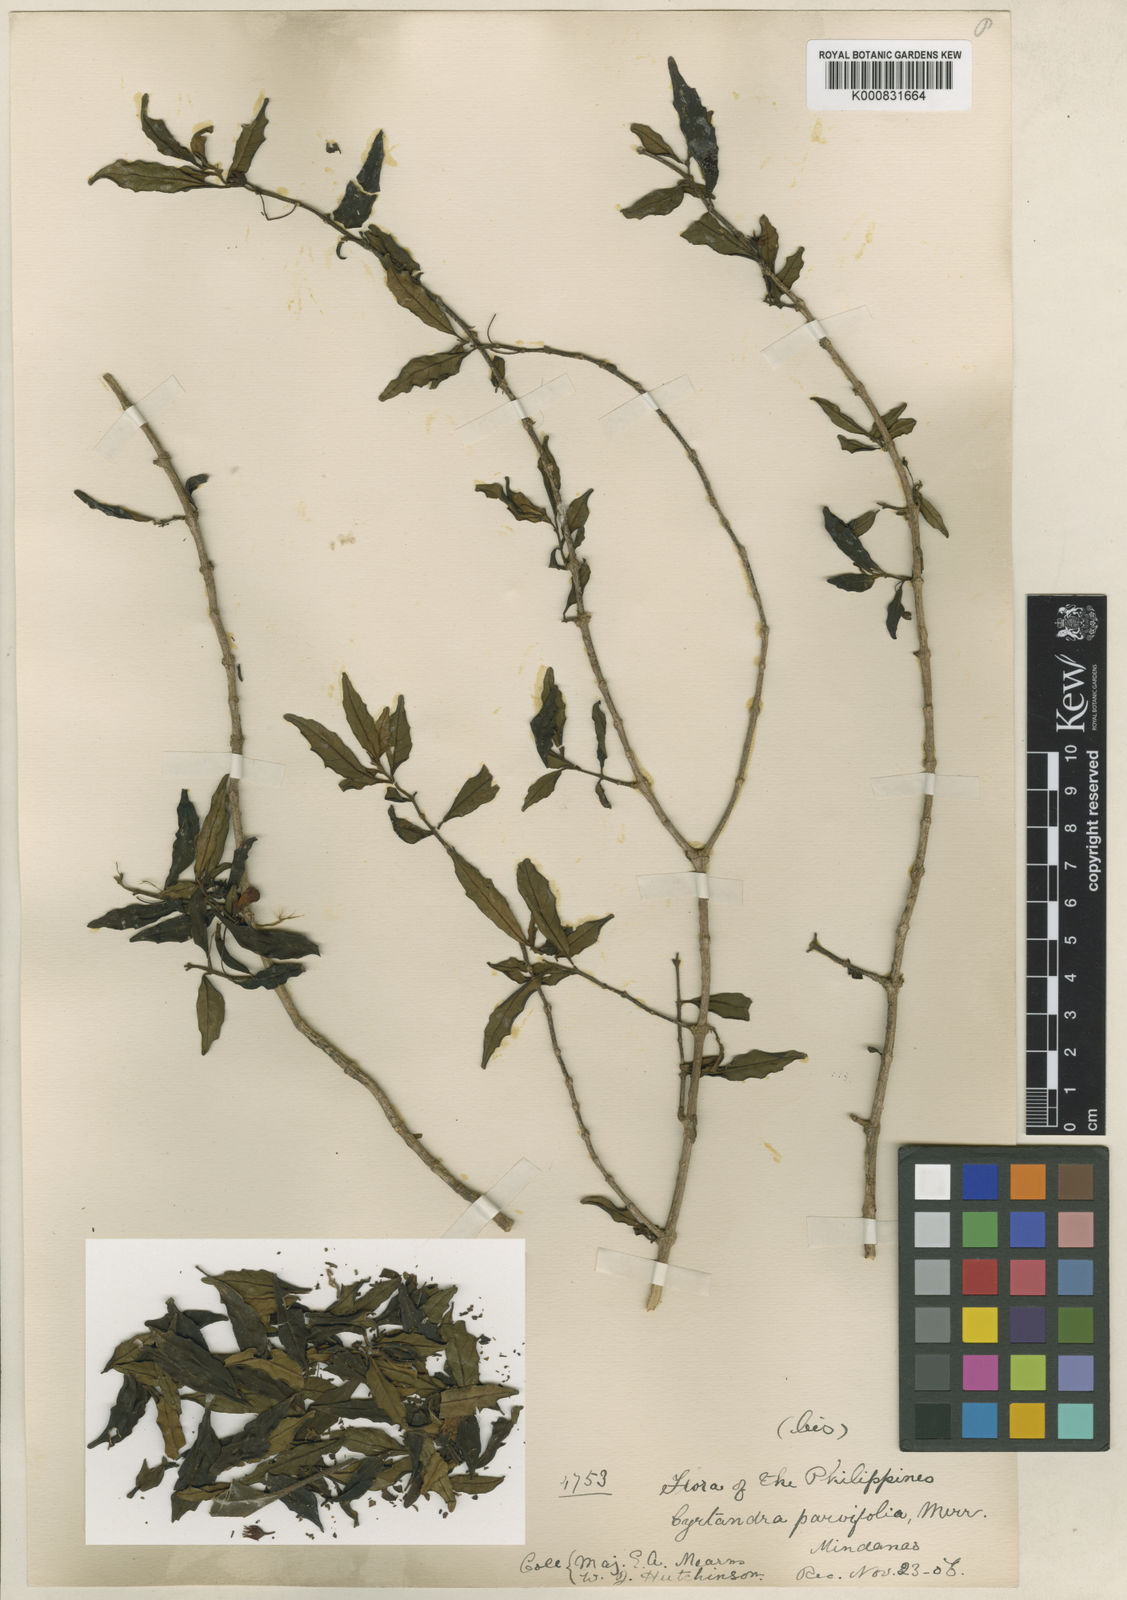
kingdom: Plantae
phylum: Tracheophyta
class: Magnoliopsida
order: Lamiales
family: Gesneriaceae
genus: Cyrtandra
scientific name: Cyrtandra parvifolia
